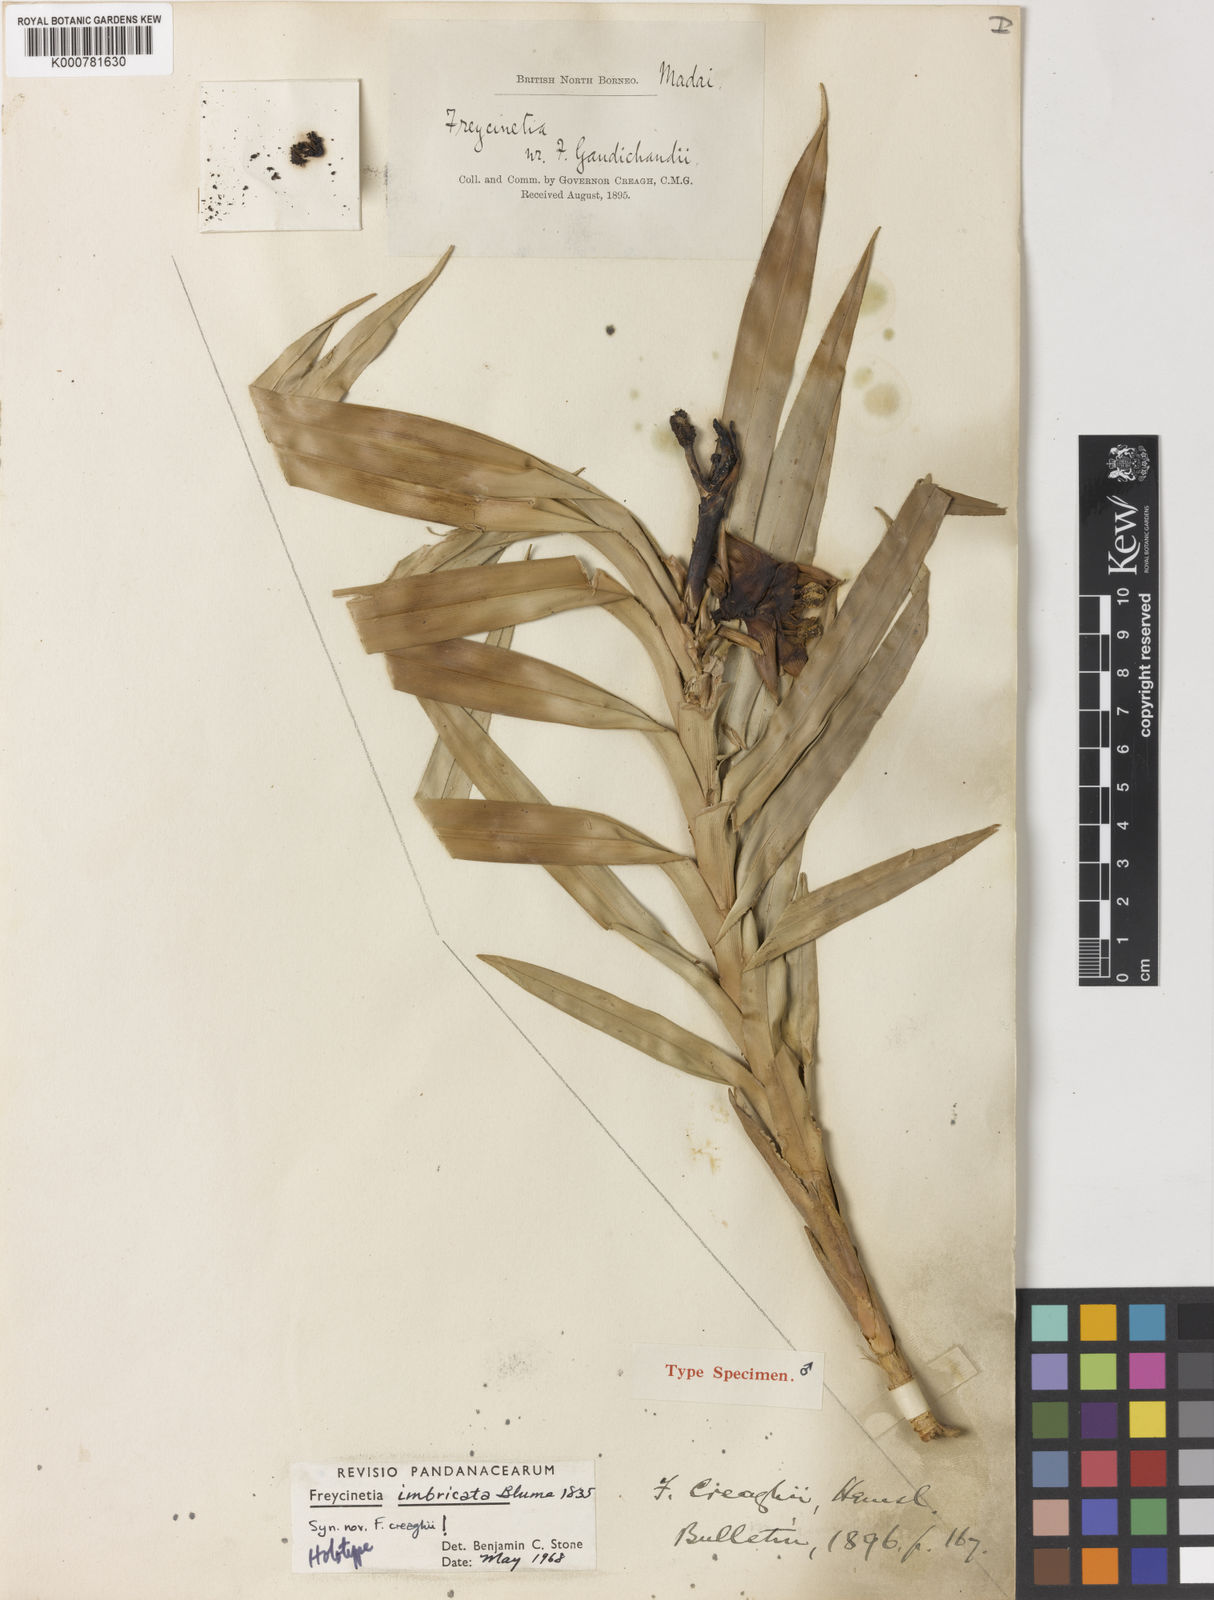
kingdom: Plantae
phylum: Tracheophyta
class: Liliopsida
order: Pandanales
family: Pandanaceae
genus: Freycinetia
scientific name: Freycinetia imbricata
